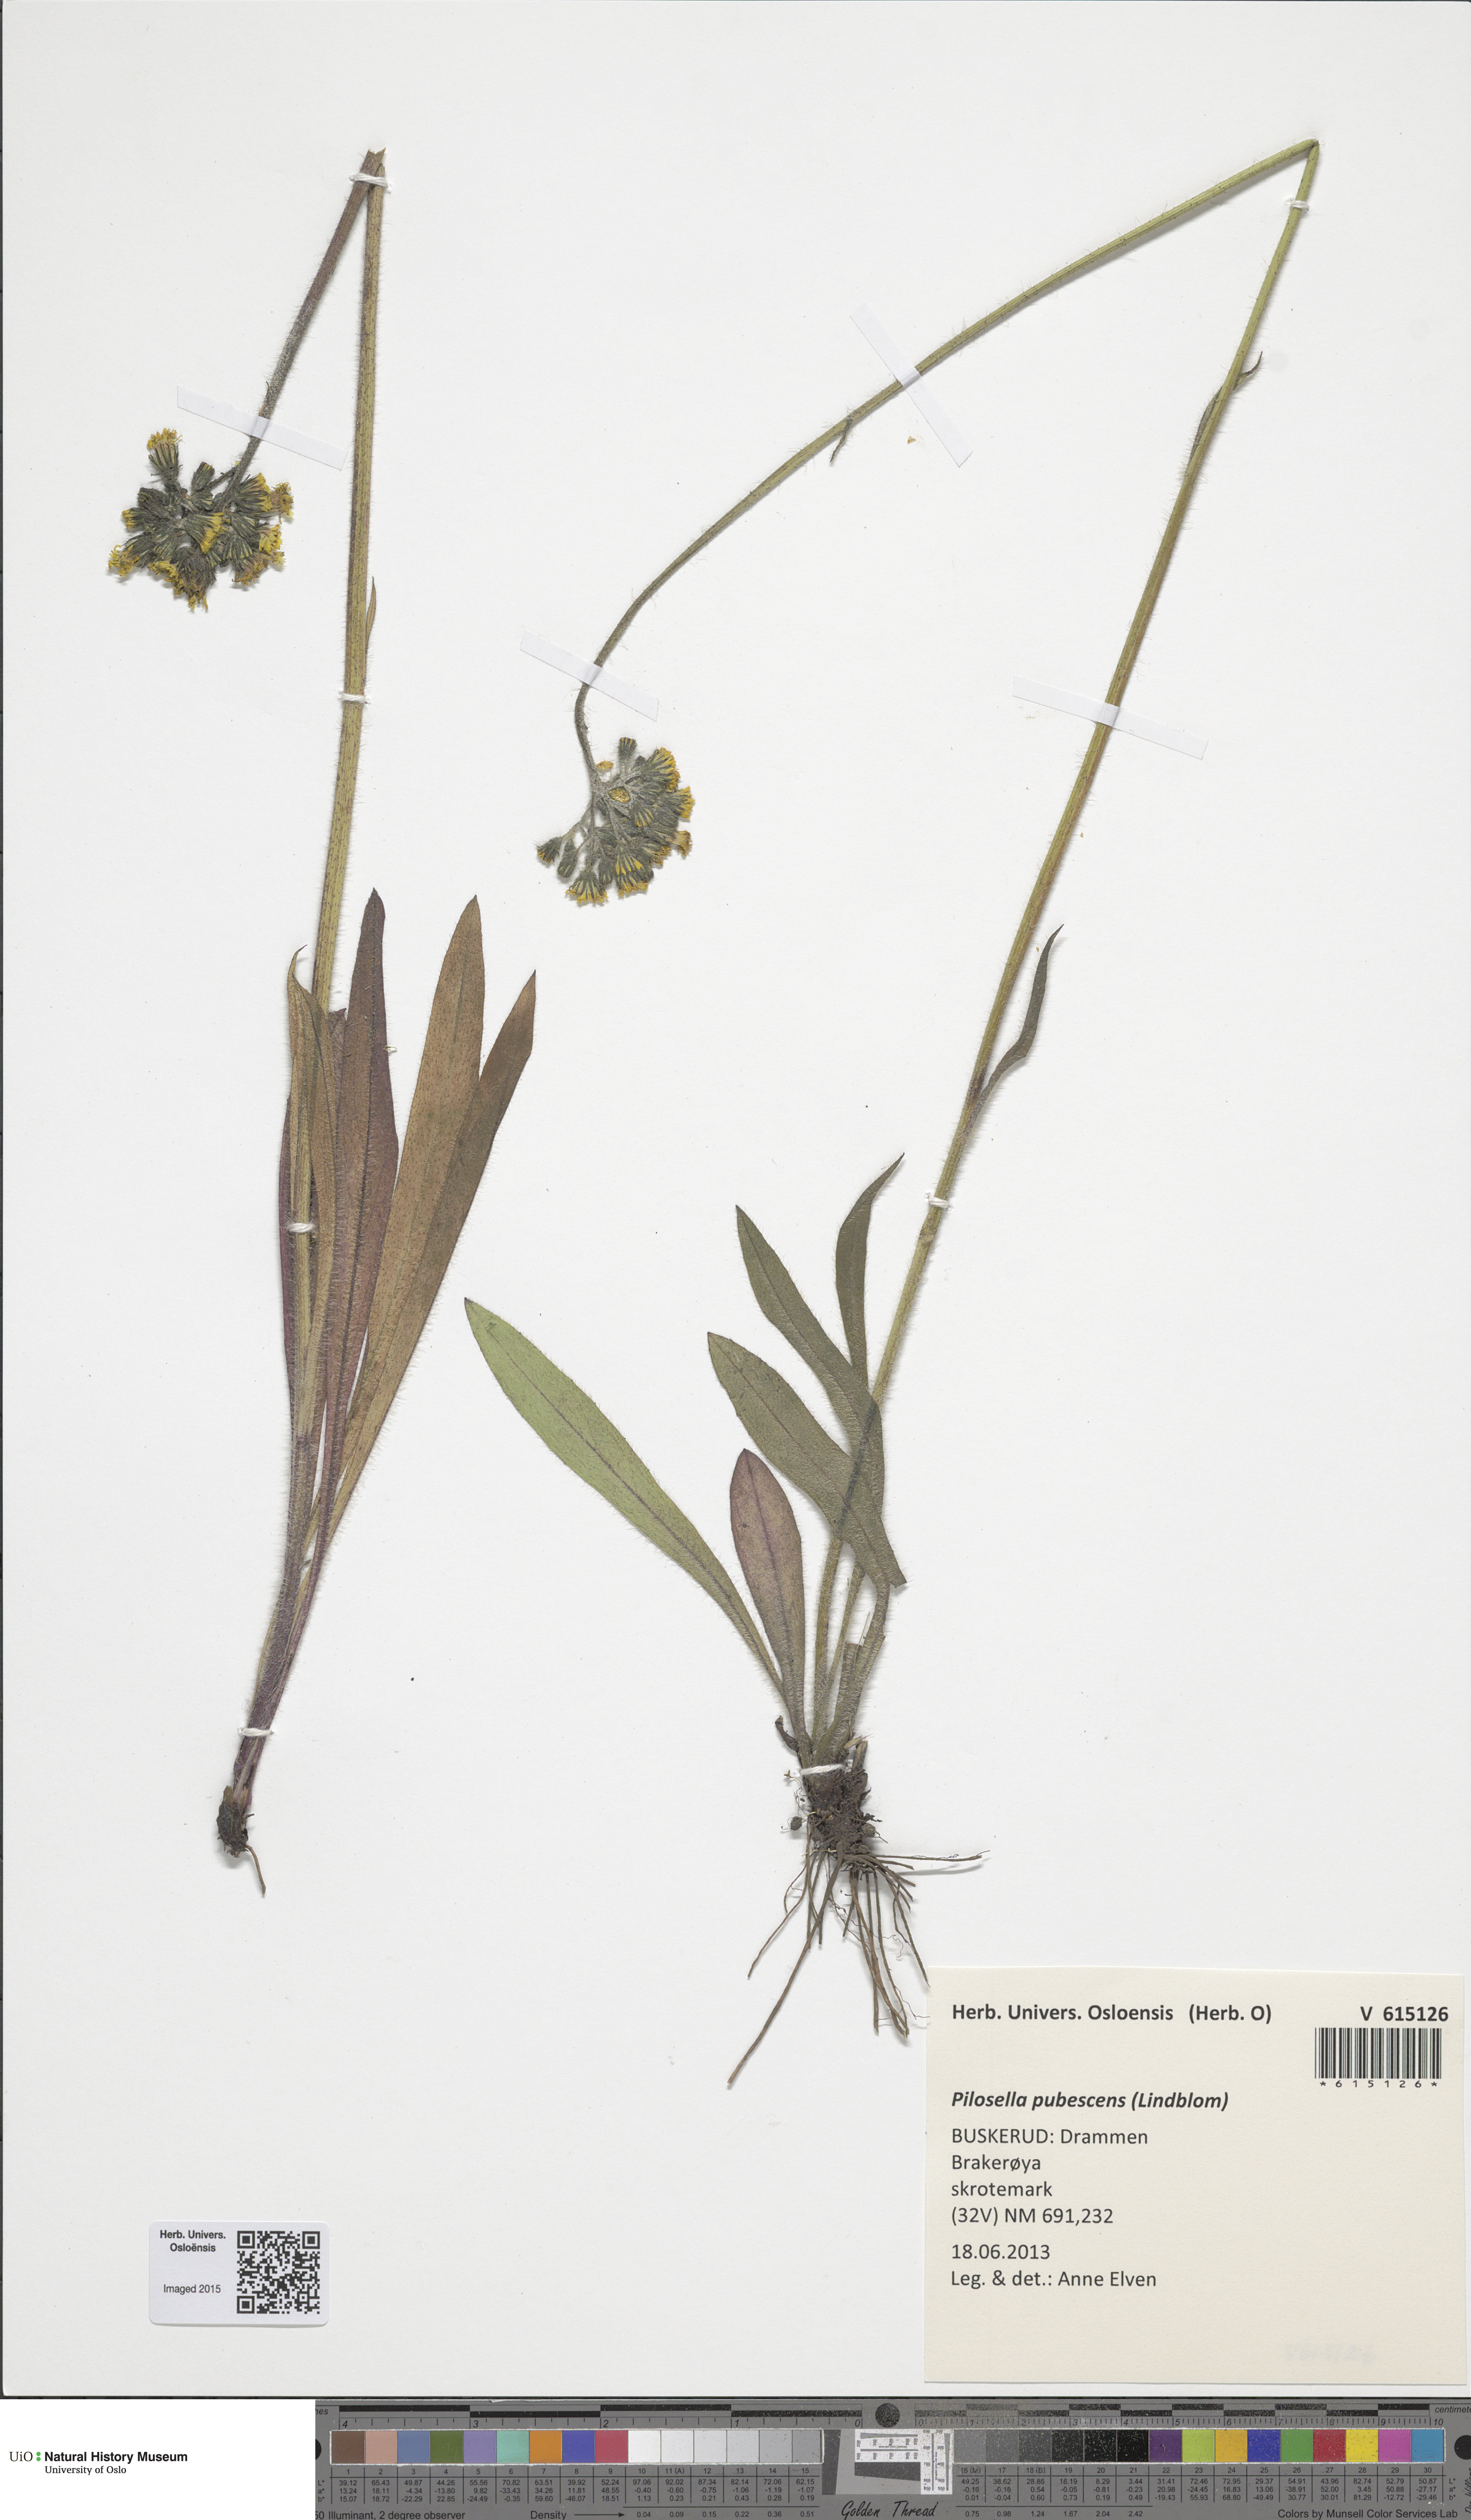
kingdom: Plantae
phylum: Tracheophyta
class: Magnoliopsida
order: Asterales
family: Asteraceae
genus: Pilosella
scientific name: Pilosella cymosa
